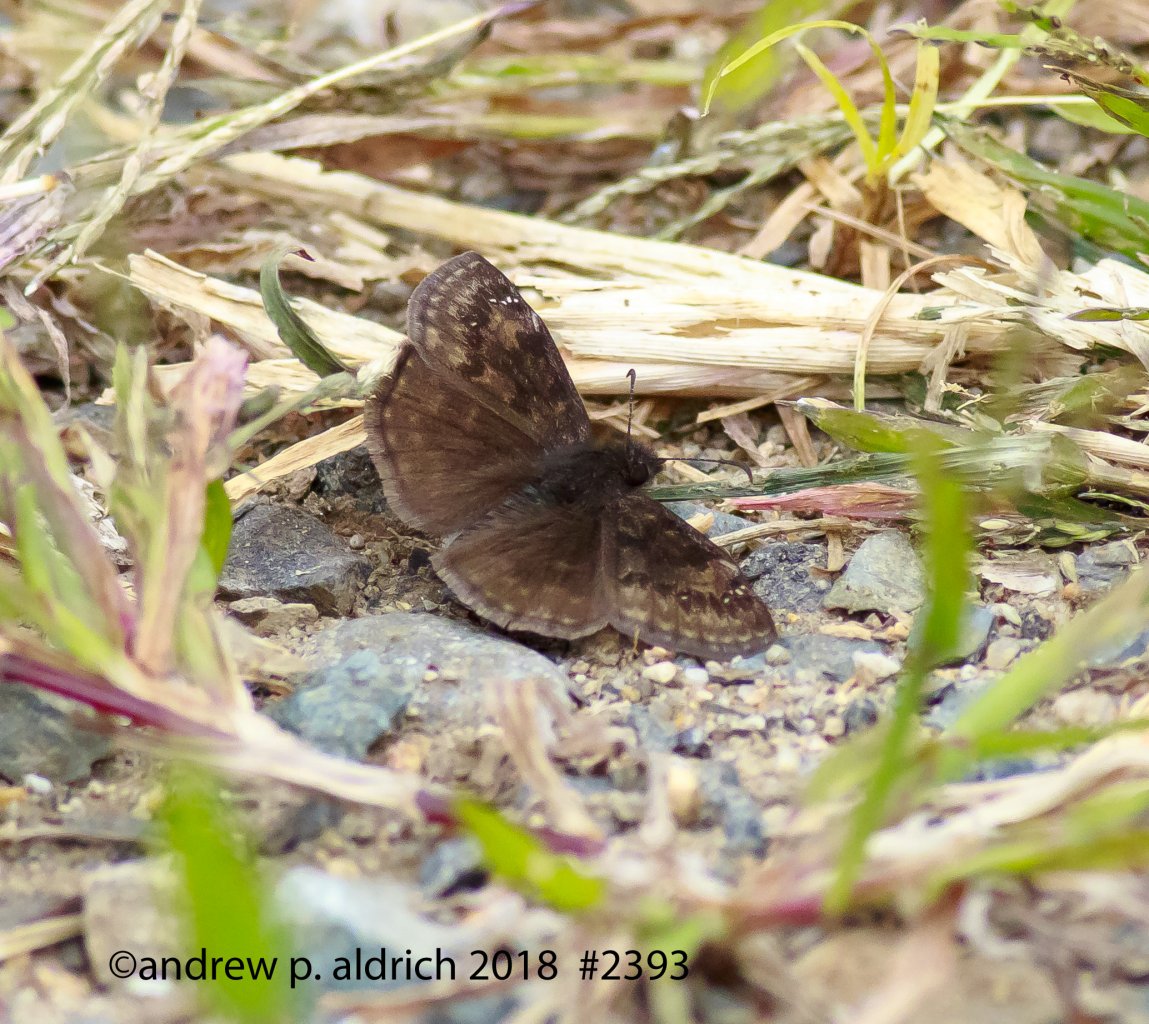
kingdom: Animalia
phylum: Arthropoda
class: Insecta
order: Lepidoptera
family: Hesperiidae
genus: Erynnis
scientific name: Erynnis
